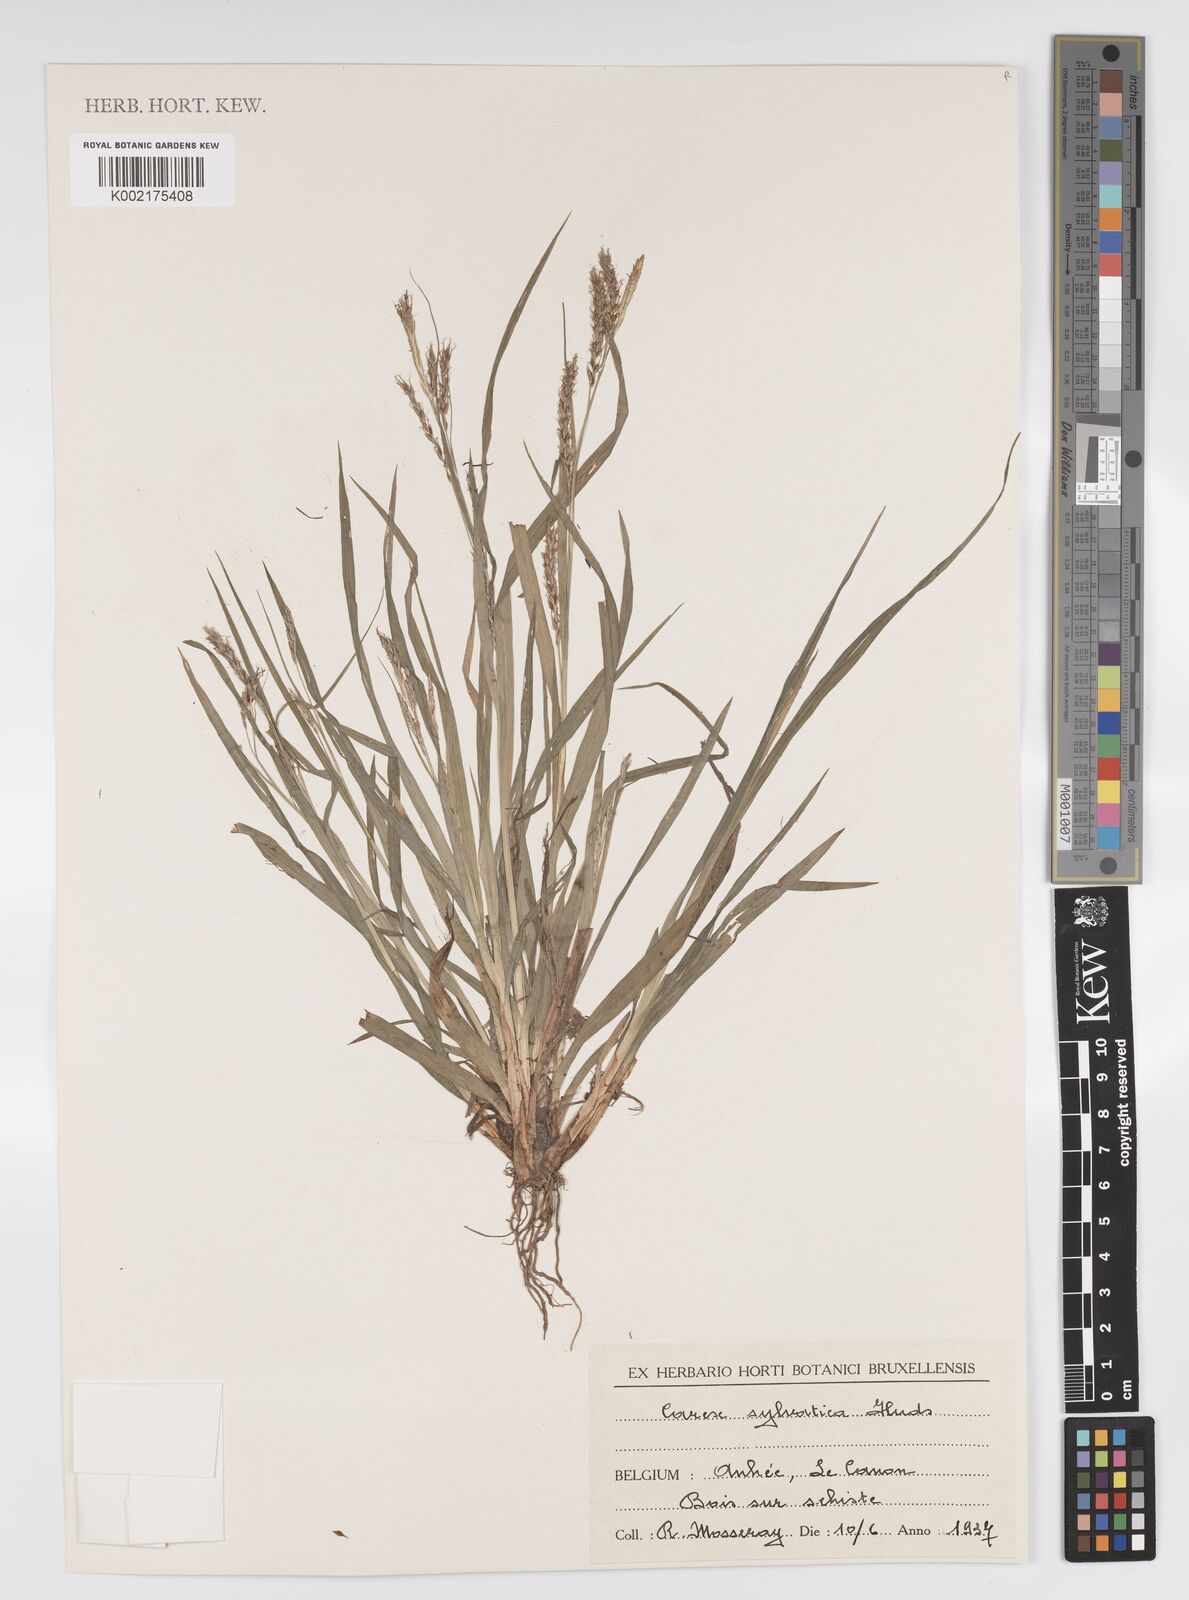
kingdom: Plantae
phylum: Tracheophyta
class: Liliopsida
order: Poales
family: Cyperaceae
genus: Carex
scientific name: Carex sylvatica
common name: Wood-sedge
